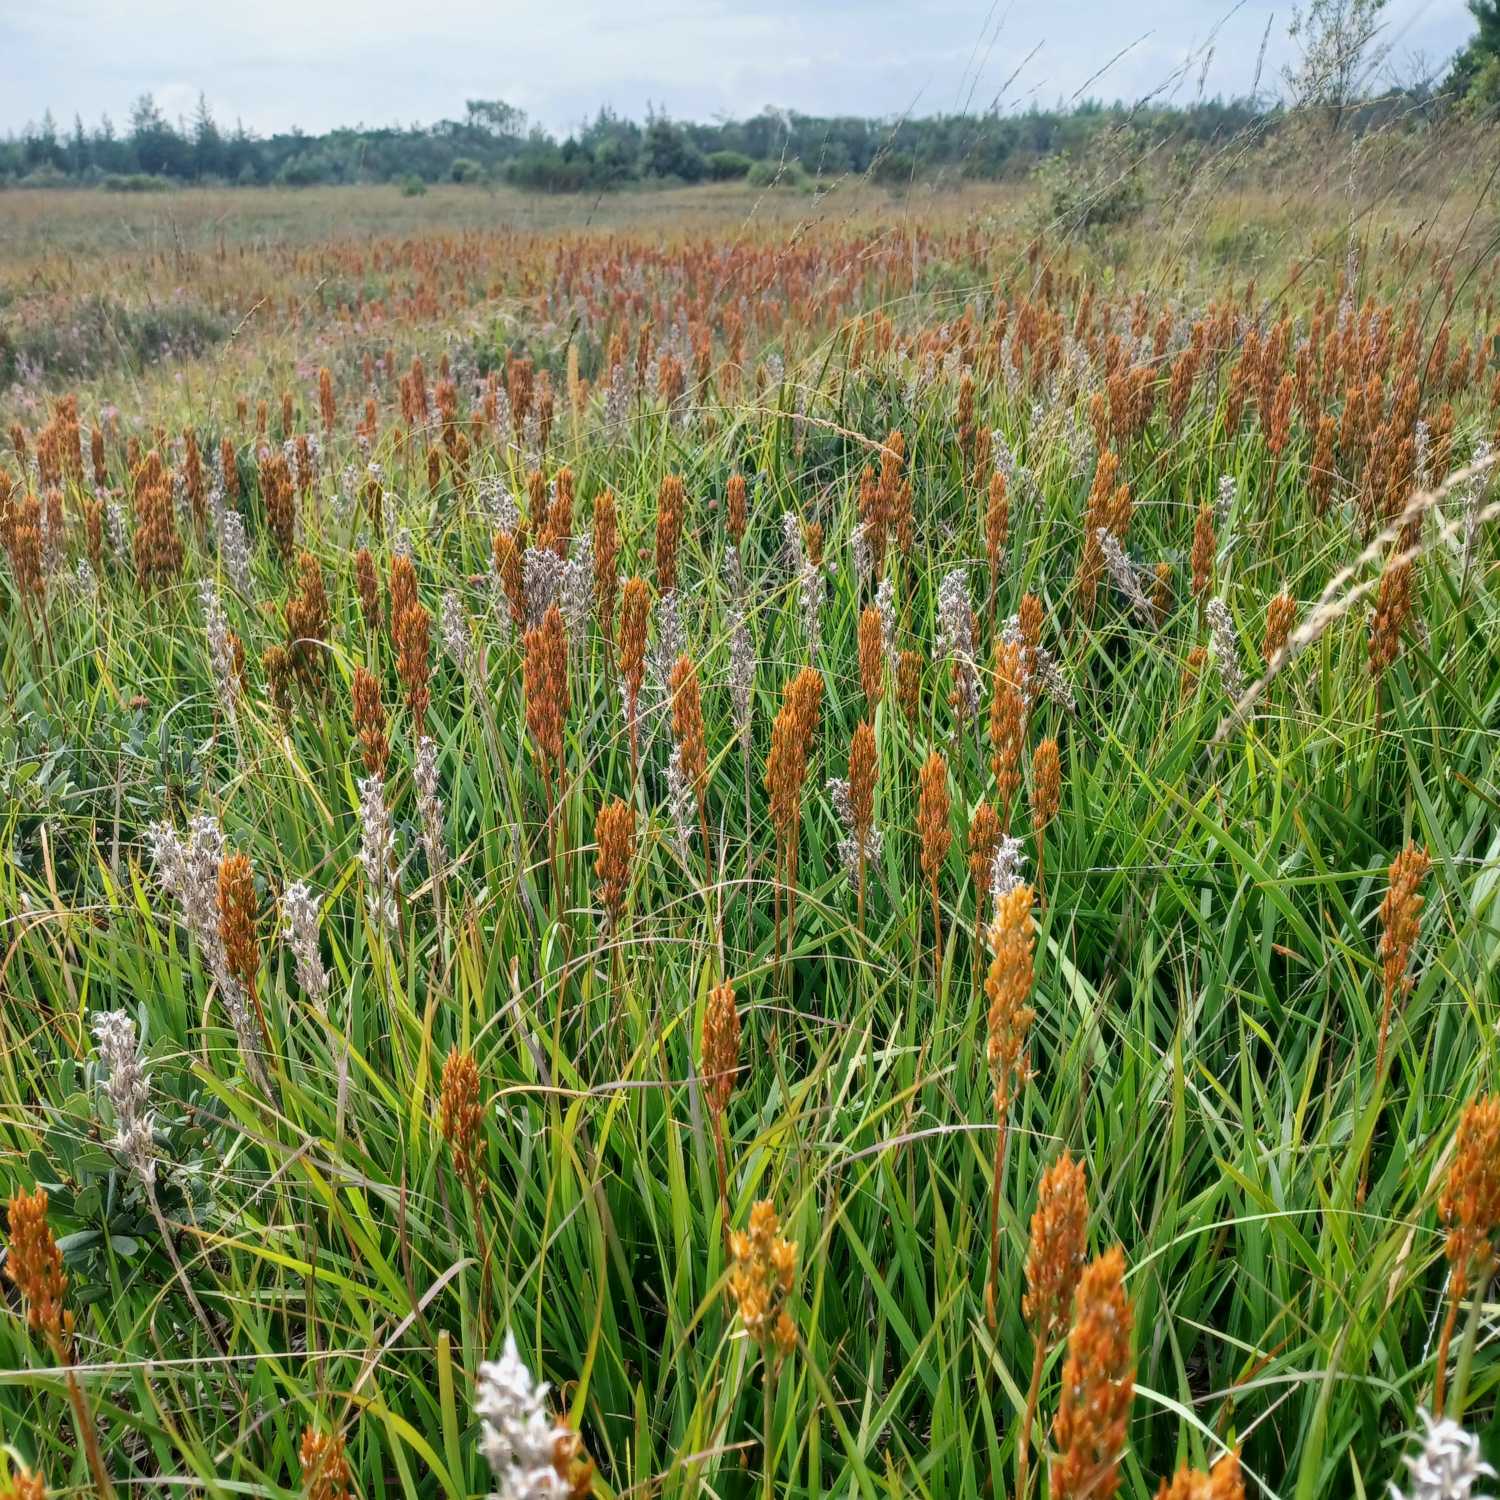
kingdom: Plantae
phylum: Tracheophyta
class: Liliopsida
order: Dioscoreales
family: Nartheciaceae
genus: Narthecium
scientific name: Narthecium ossifragum
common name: Benbræk
